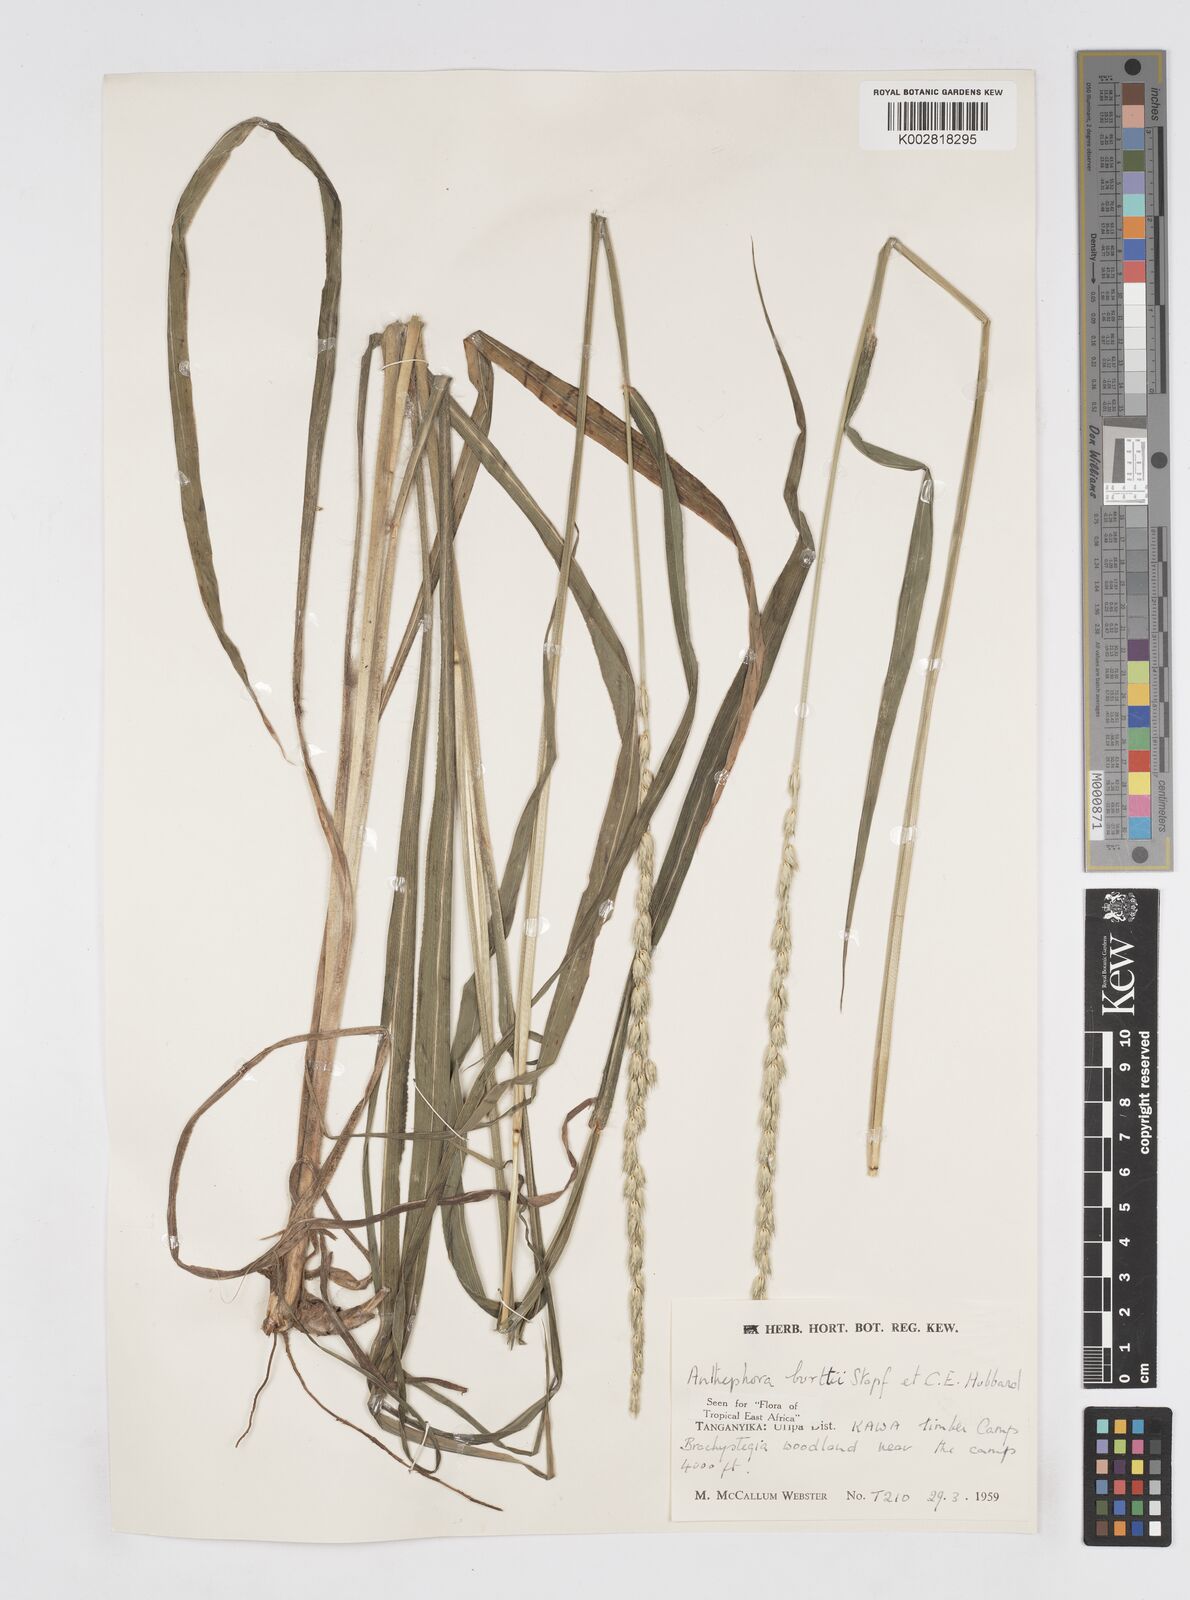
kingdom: Plantae
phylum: Tracheophyta
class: Liliopsida
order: Poales
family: Poaceae
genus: Anthephora
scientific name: Anthephora elongata
